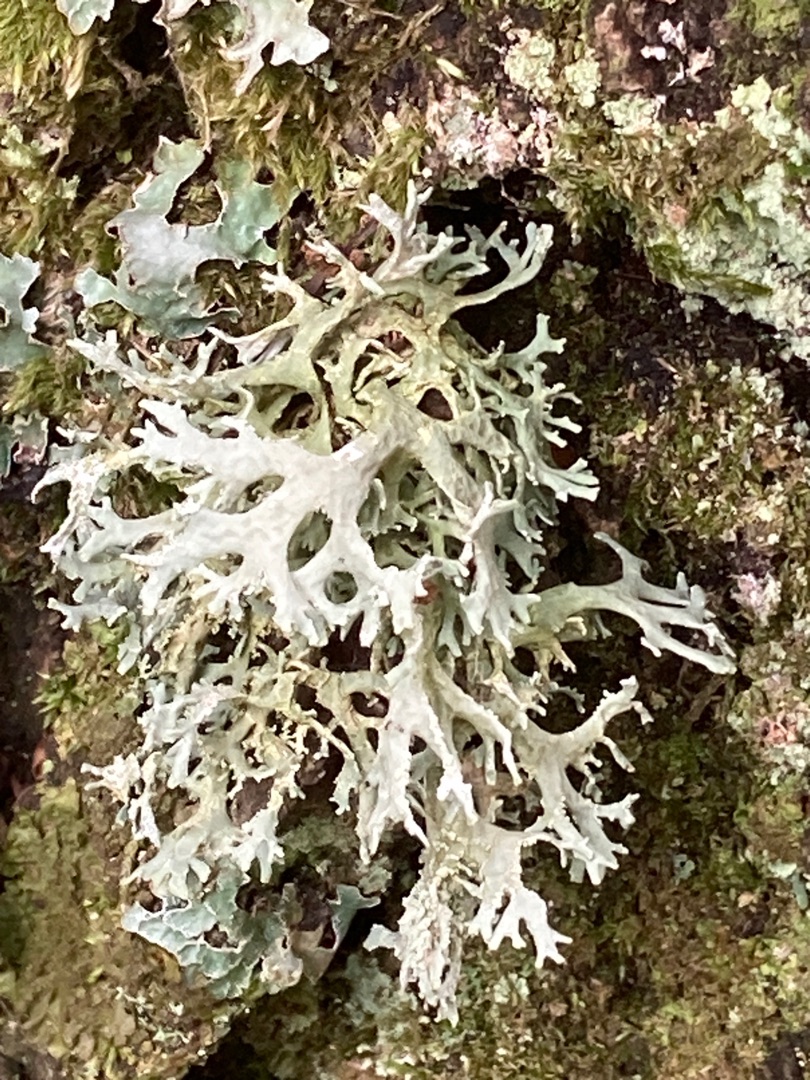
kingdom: Fungi
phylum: Ascomycota
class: Lecanoromycetes
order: Lecanorales
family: Parmeliaceae
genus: Evernia
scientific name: Evernia prunastri
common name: Almindelig slåenlav
